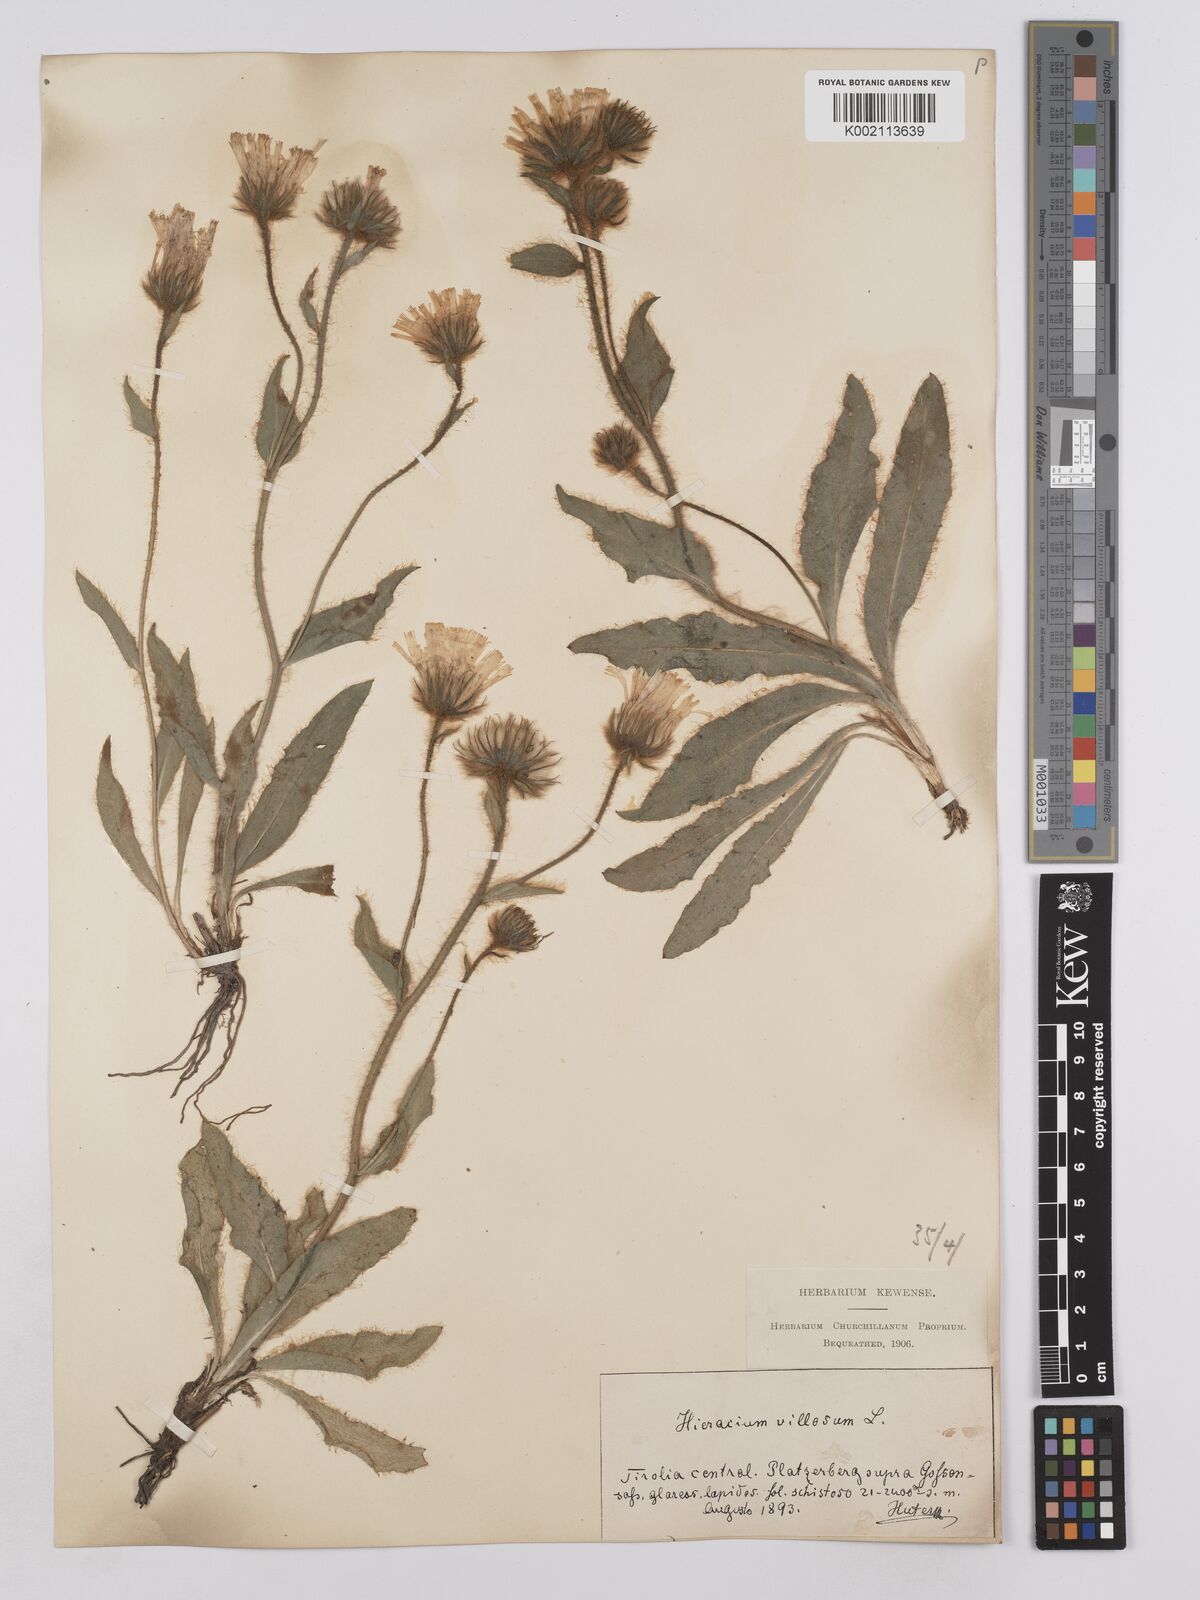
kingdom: Plantae
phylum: Tracheophyta
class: Magnoliopsida
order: Asterales
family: Asteraceae
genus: Hieracium
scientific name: Hieracium villosum
